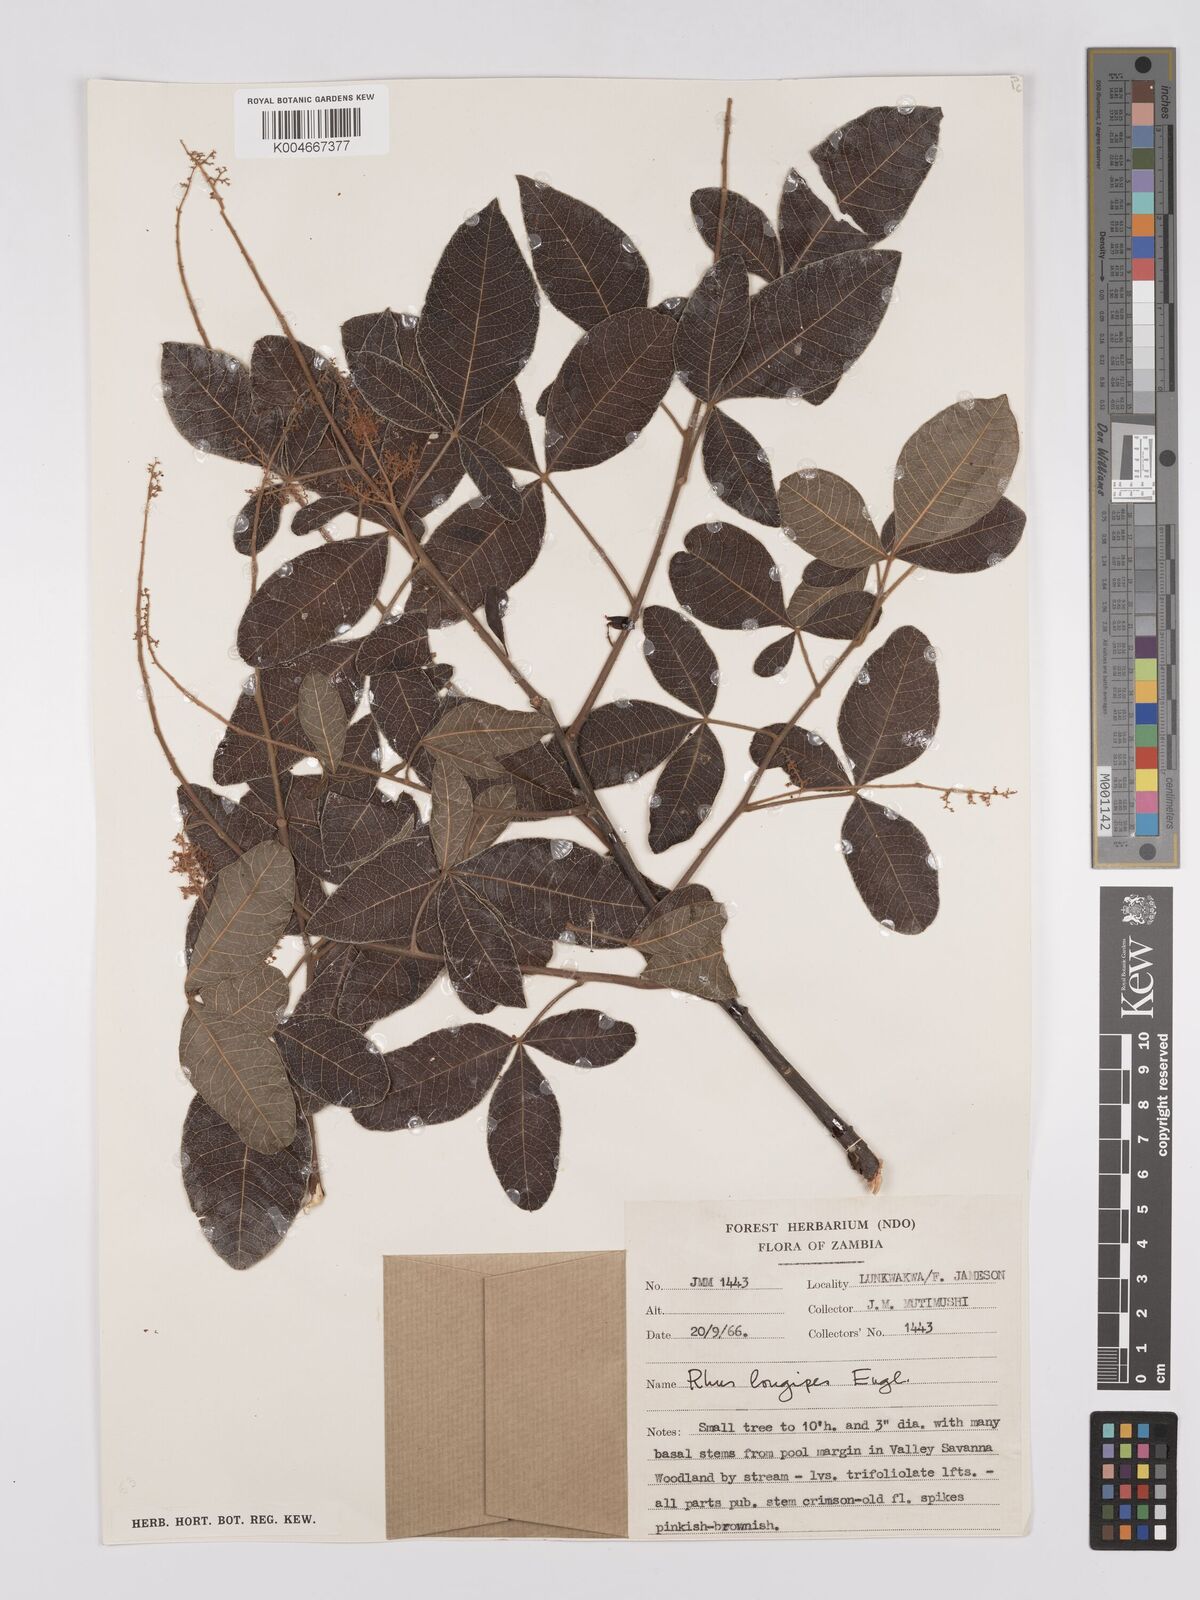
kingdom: Plantae
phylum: Tracheophyta
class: Magnoliopsida
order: Sapindales
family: Anacardiaceae
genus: Searsia
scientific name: Searsia longipes
